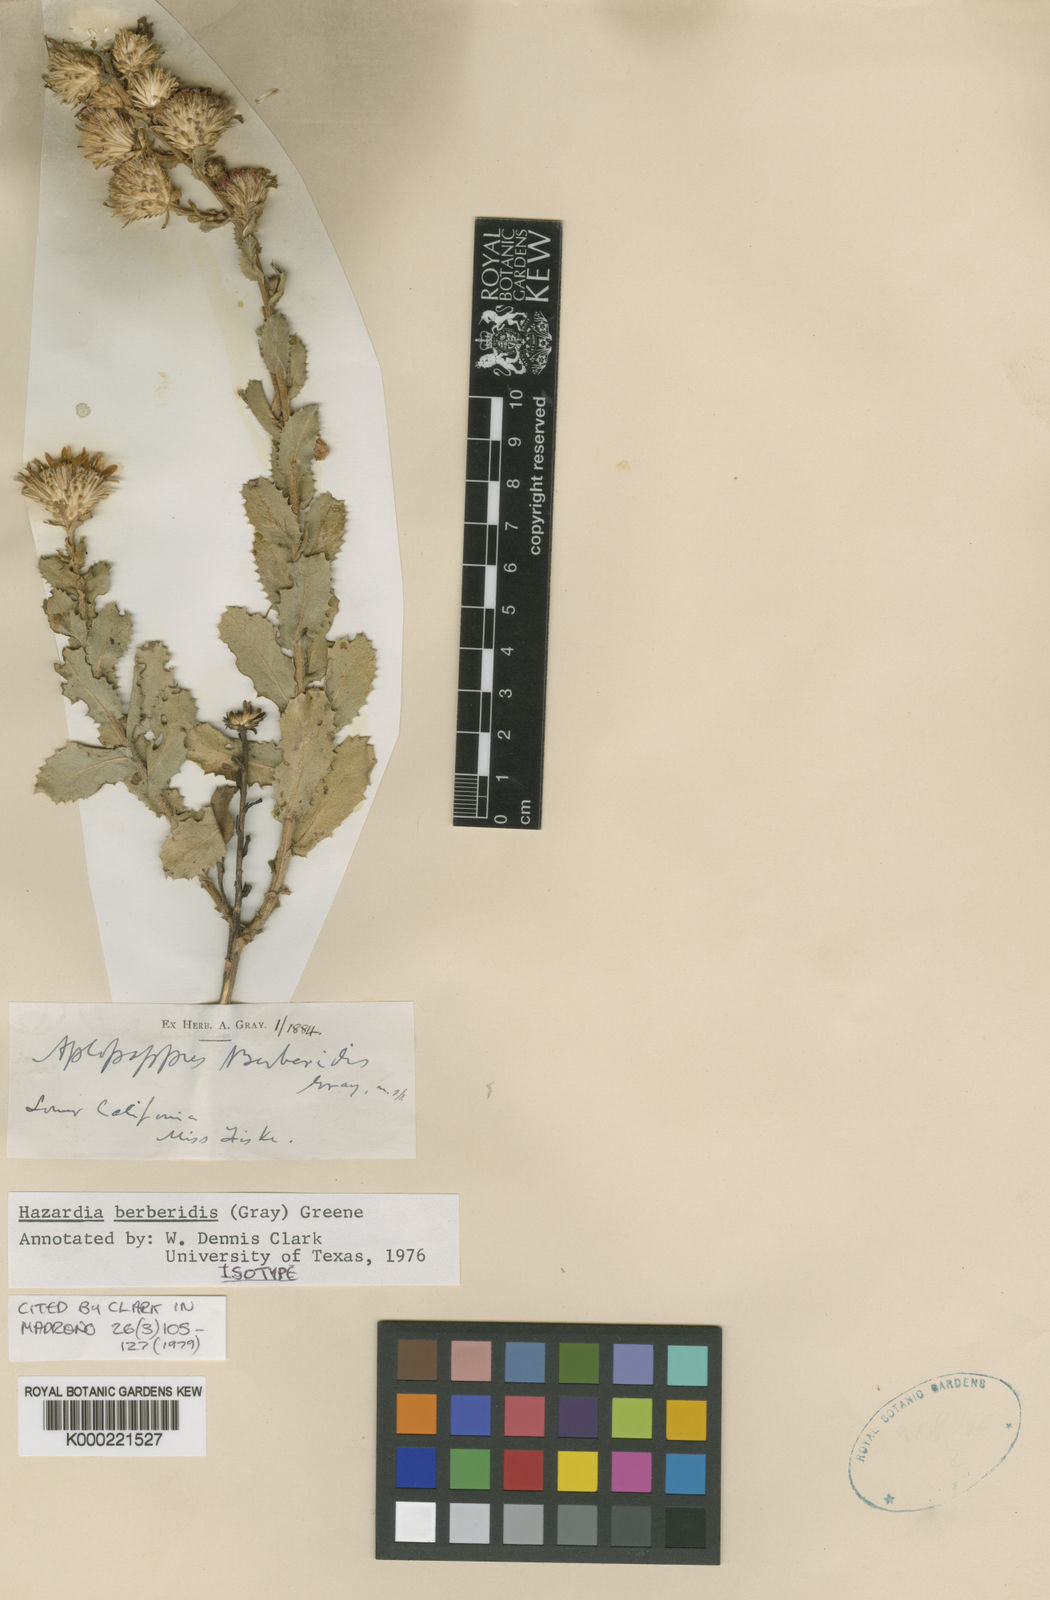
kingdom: Plantae
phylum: Tracheophyta
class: Magnoliopsida
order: Asterales
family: Asteraceae
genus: Hazardia
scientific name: Hazardia berberidis
